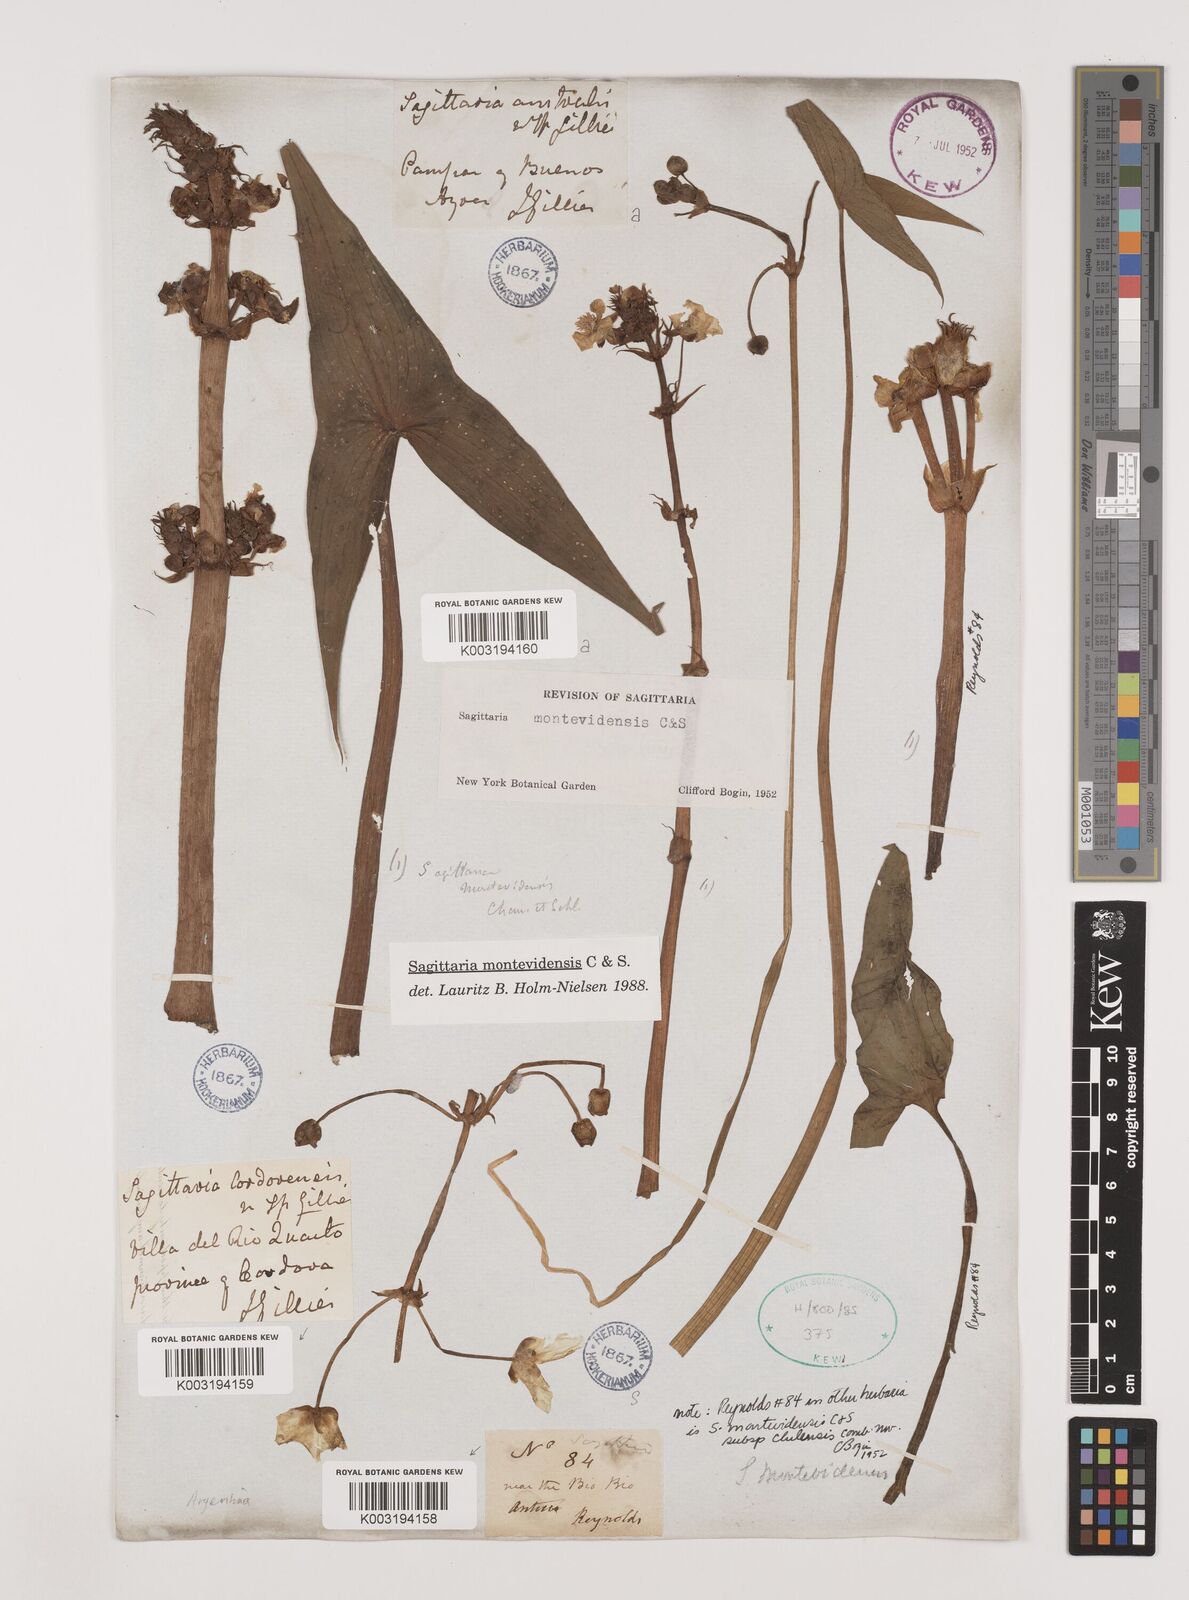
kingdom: Plantae
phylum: Tracheophyta
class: Liliopsida
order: Alismatales
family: Alismataceae
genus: Sagittaria
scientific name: Sagittaria montevidensis
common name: Giant arrowhead
